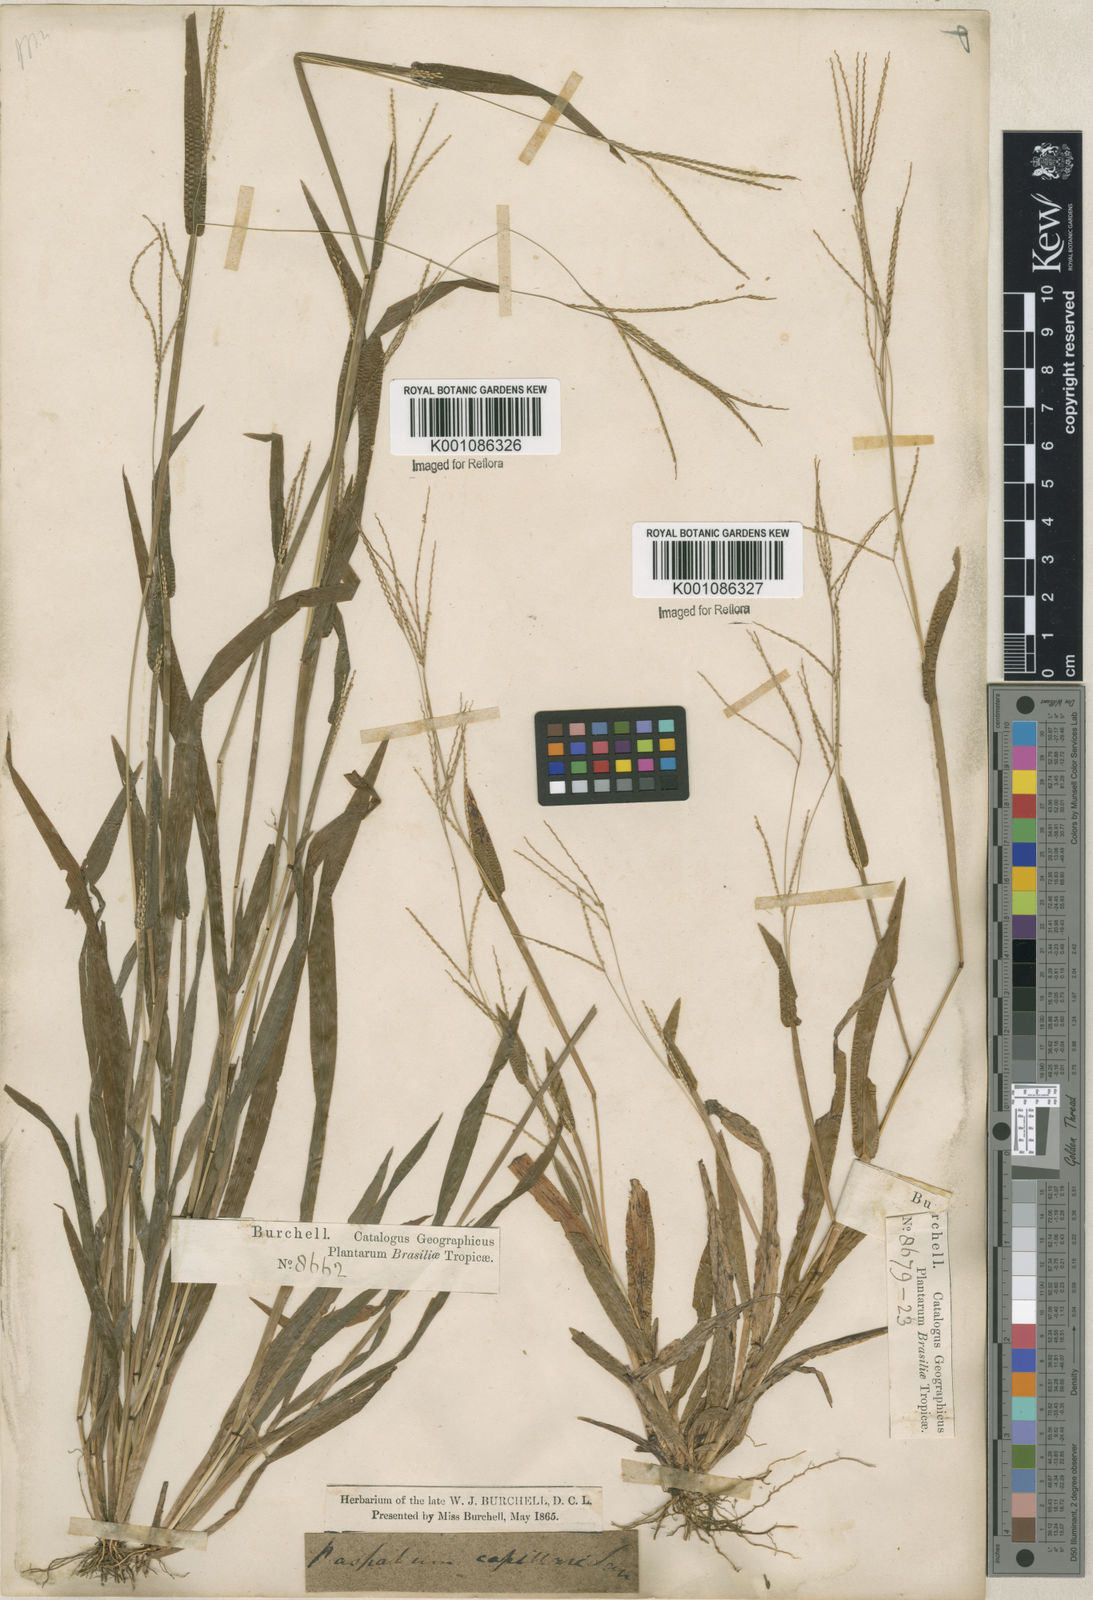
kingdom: Plantae
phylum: Tracheophyta
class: Liliopsida
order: Poales
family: Poaceae
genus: Axonopus
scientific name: Axonopus capillaris
